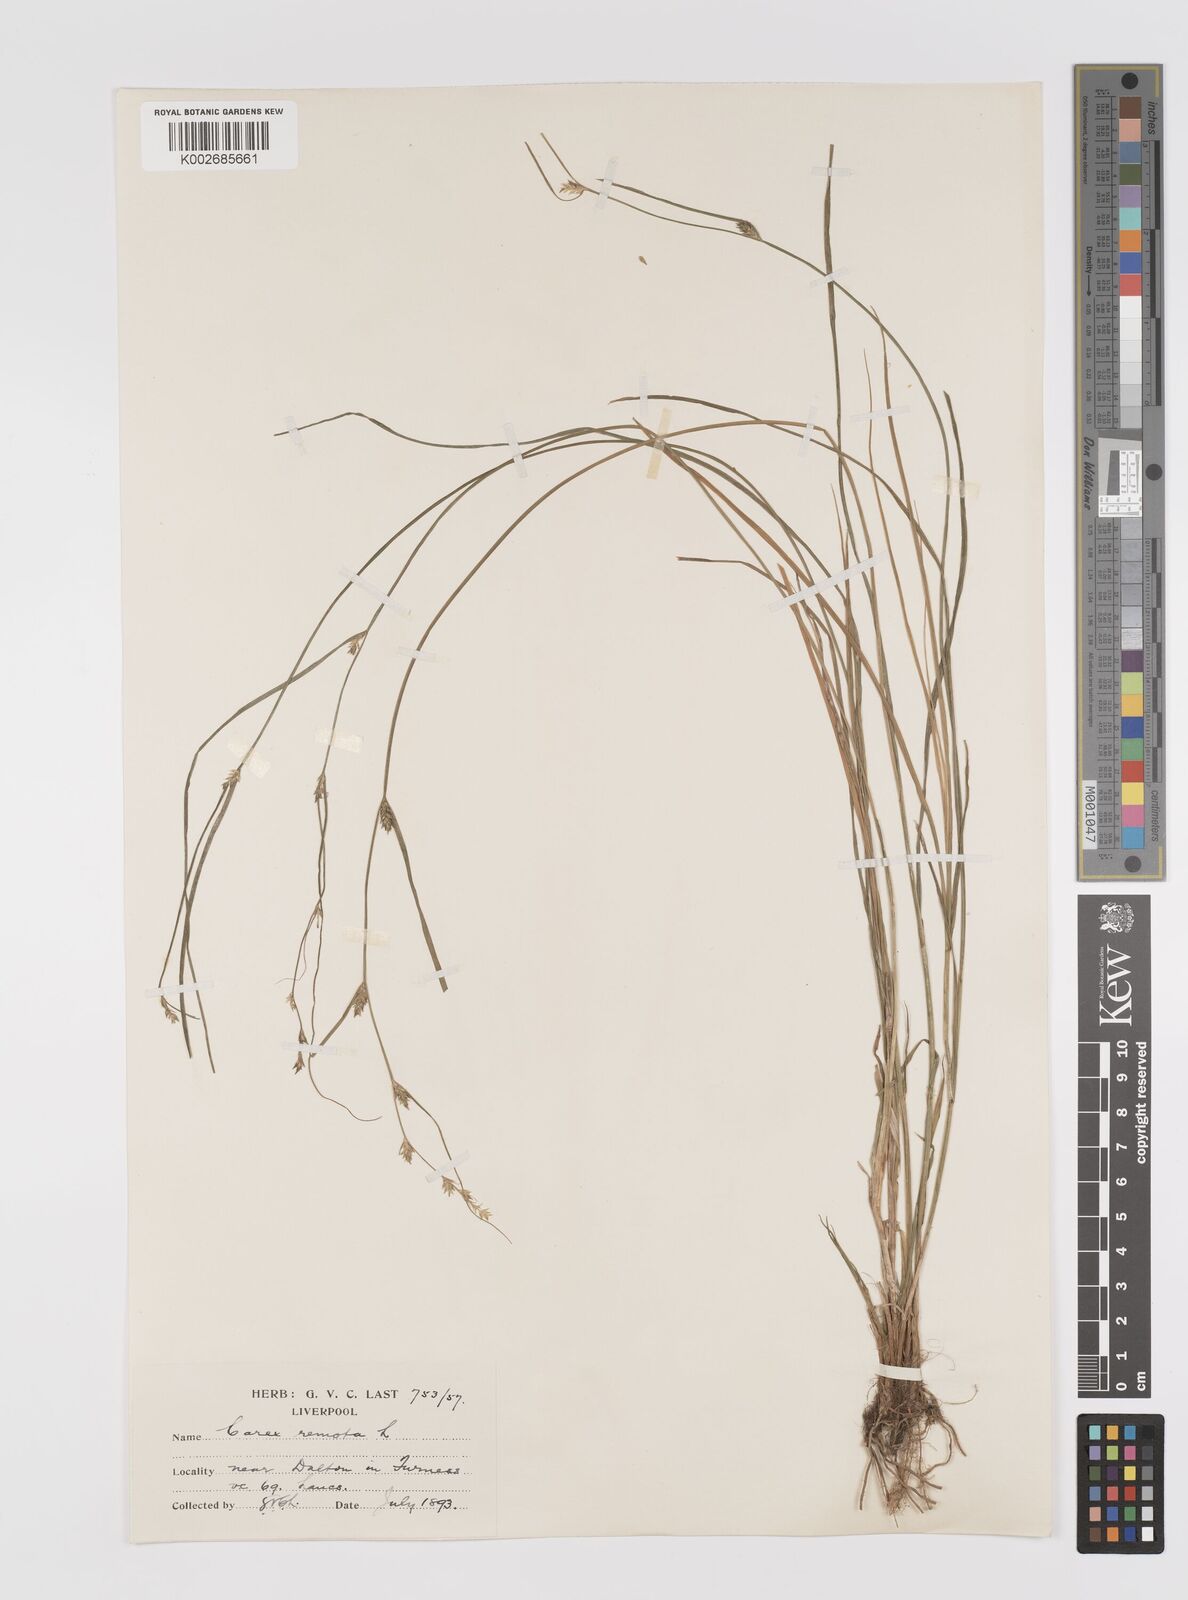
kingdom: Plantae
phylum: Tracheophyta
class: Liliopsida
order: Poales
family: Cyperaceae
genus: Carex
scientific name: Carex remota
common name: Remote sedge
